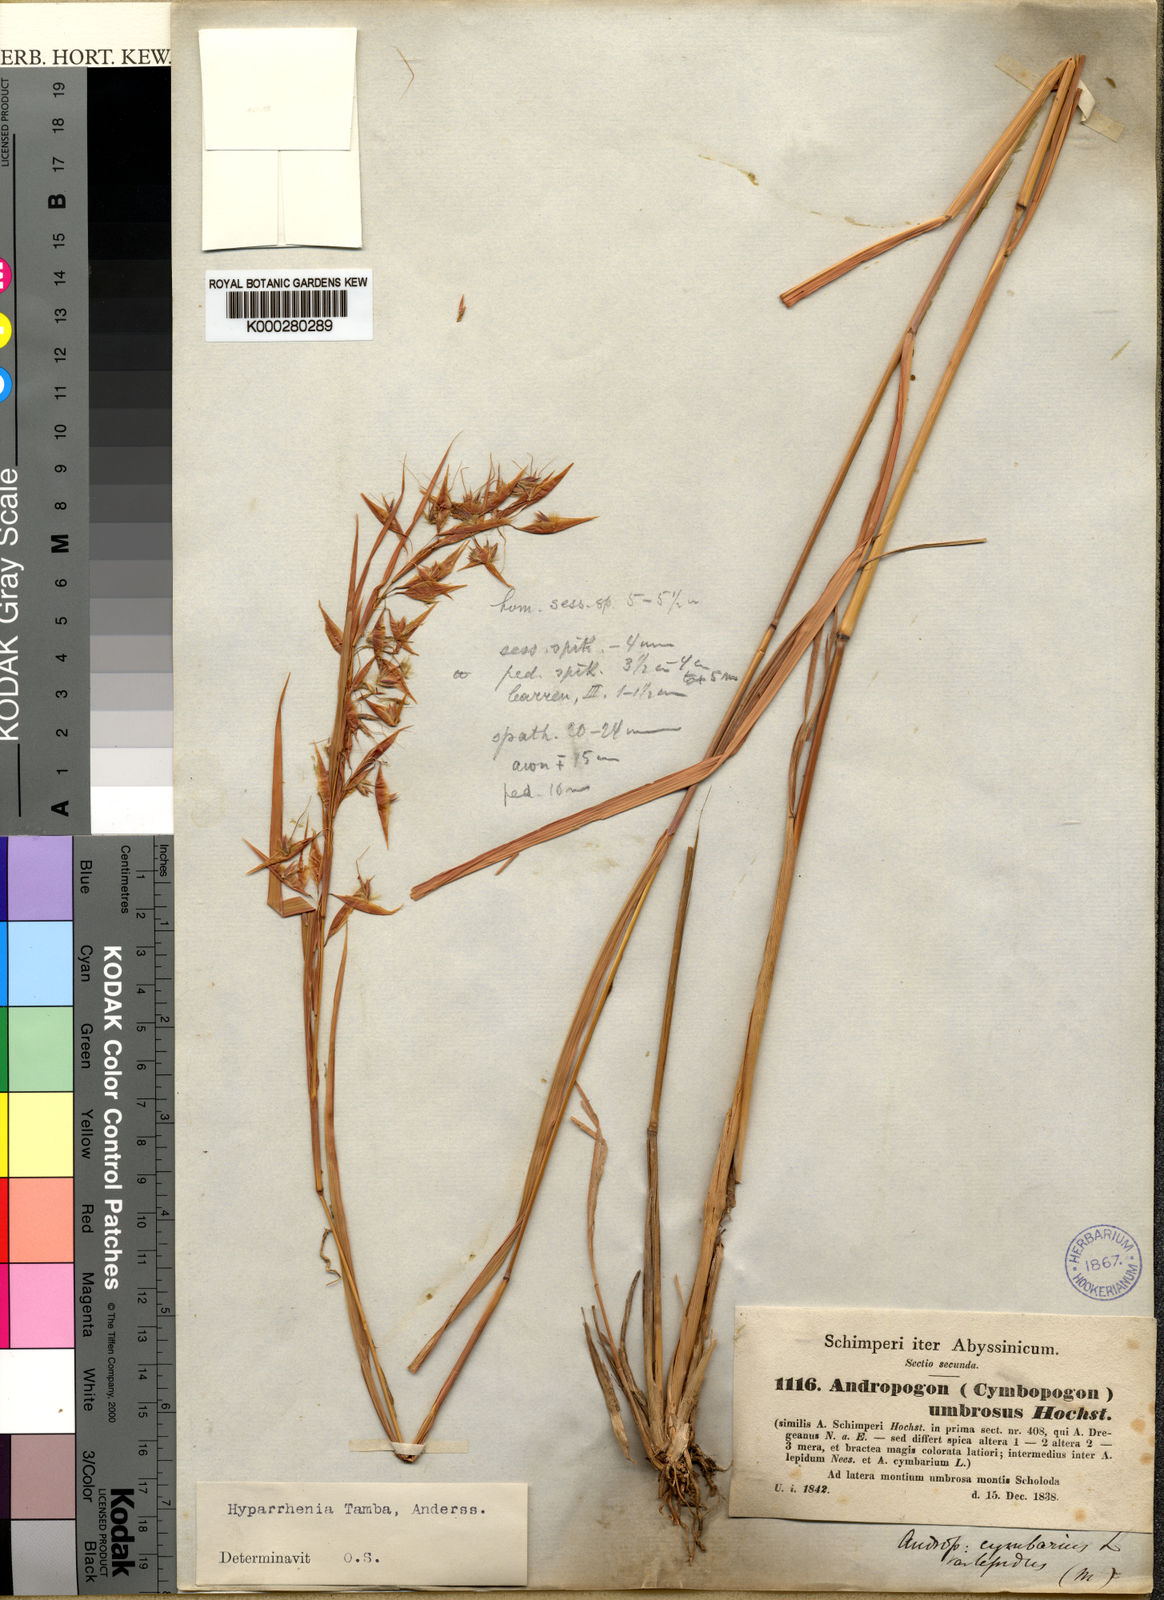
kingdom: Plantae
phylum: Tracheophyta
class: Liliopsida
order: Poales
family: Poaceae
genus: Hyparrhenia
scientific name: Hyparrhenia umbrosa
